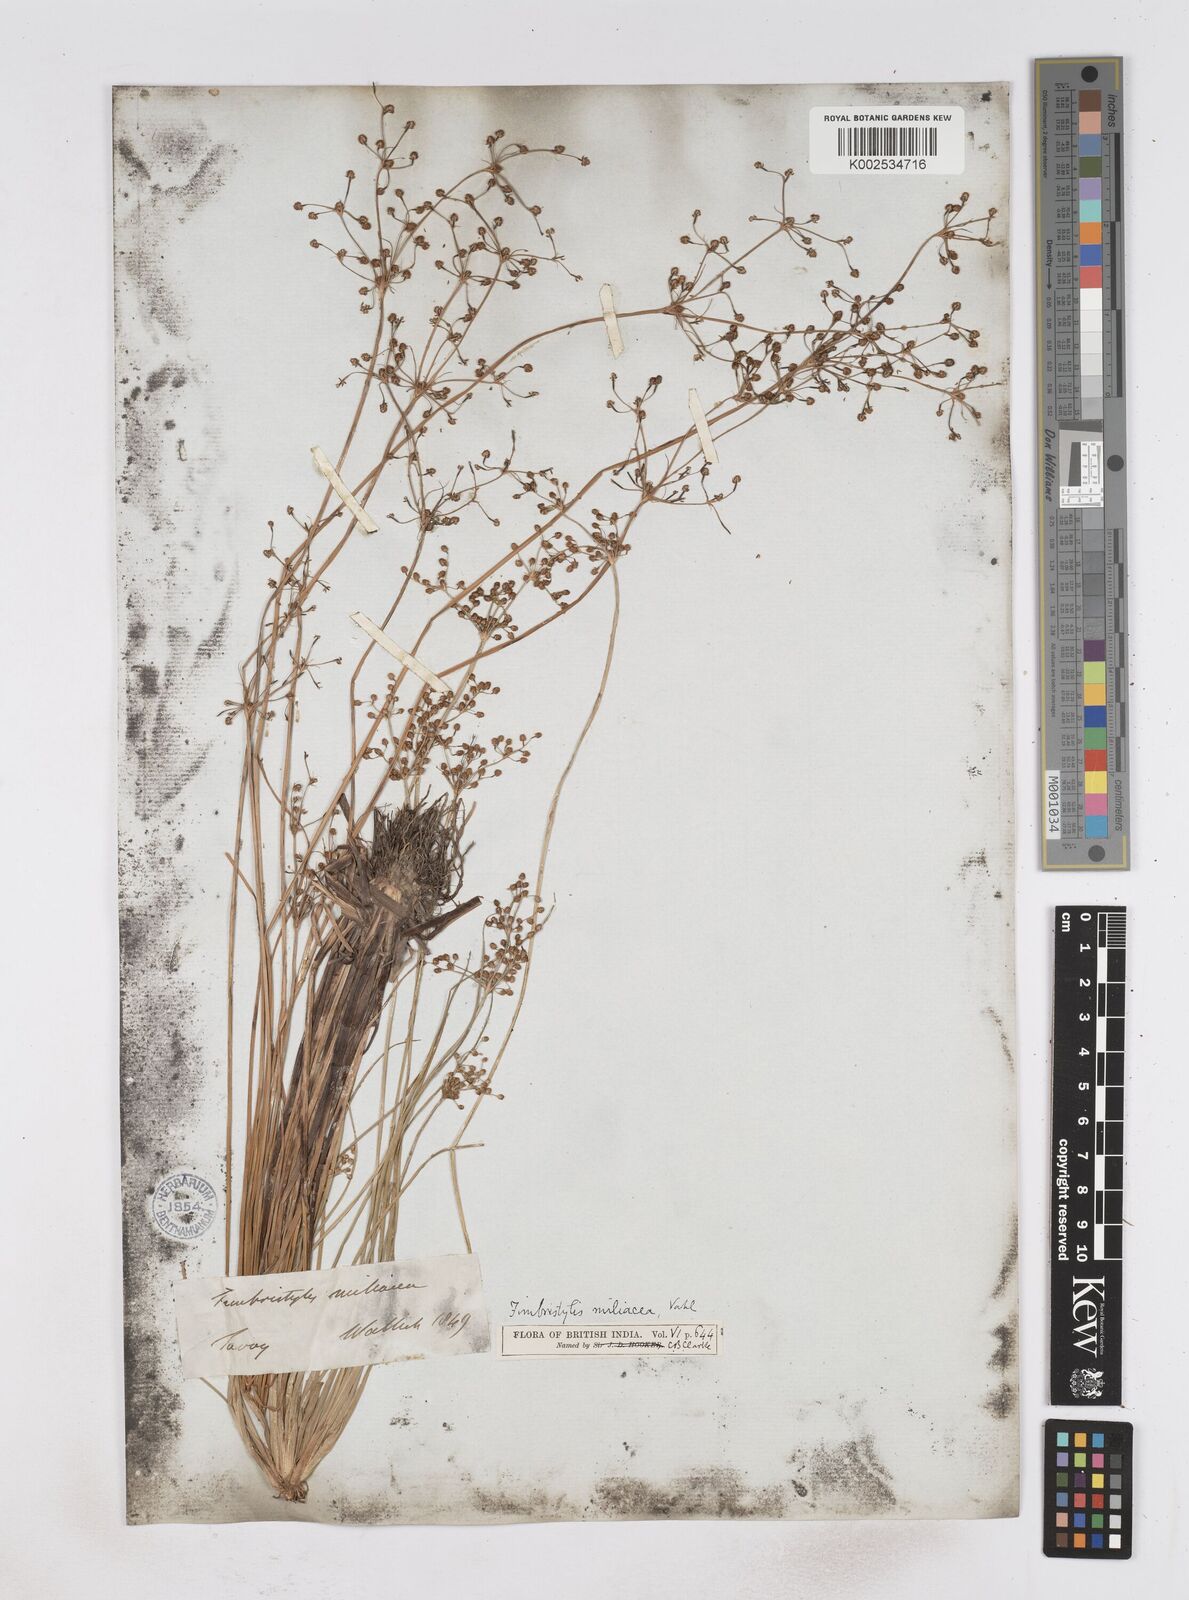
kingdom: Plantae
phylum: Tracheophyta
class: Liliopsida
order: Poales
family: Cyperaceae
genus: Fimbristylis
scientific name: Fimbristylis littoralis
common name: Fimbry
